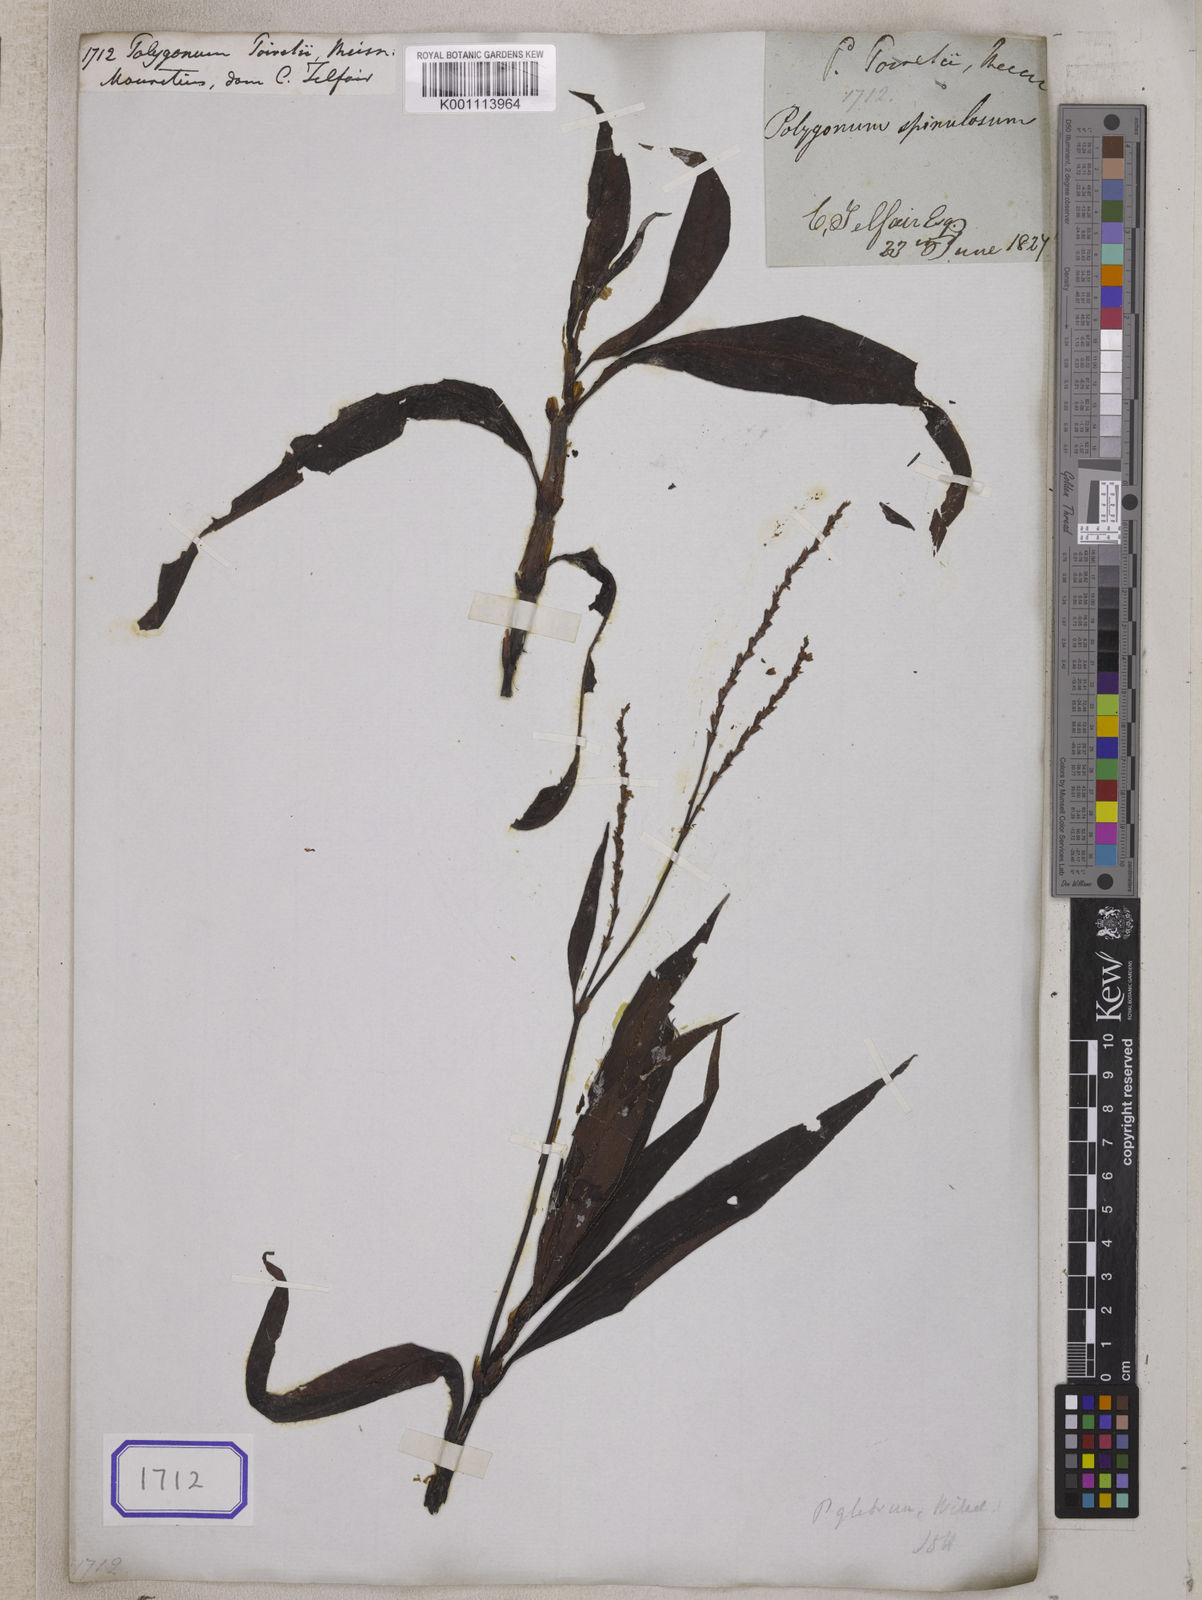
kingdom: Plantae
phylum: Tracheophyta
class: Magnoliopsida
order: Caryophyllales
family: Polygonaceae
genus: Persicaria
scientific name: Persicaria poiretii
